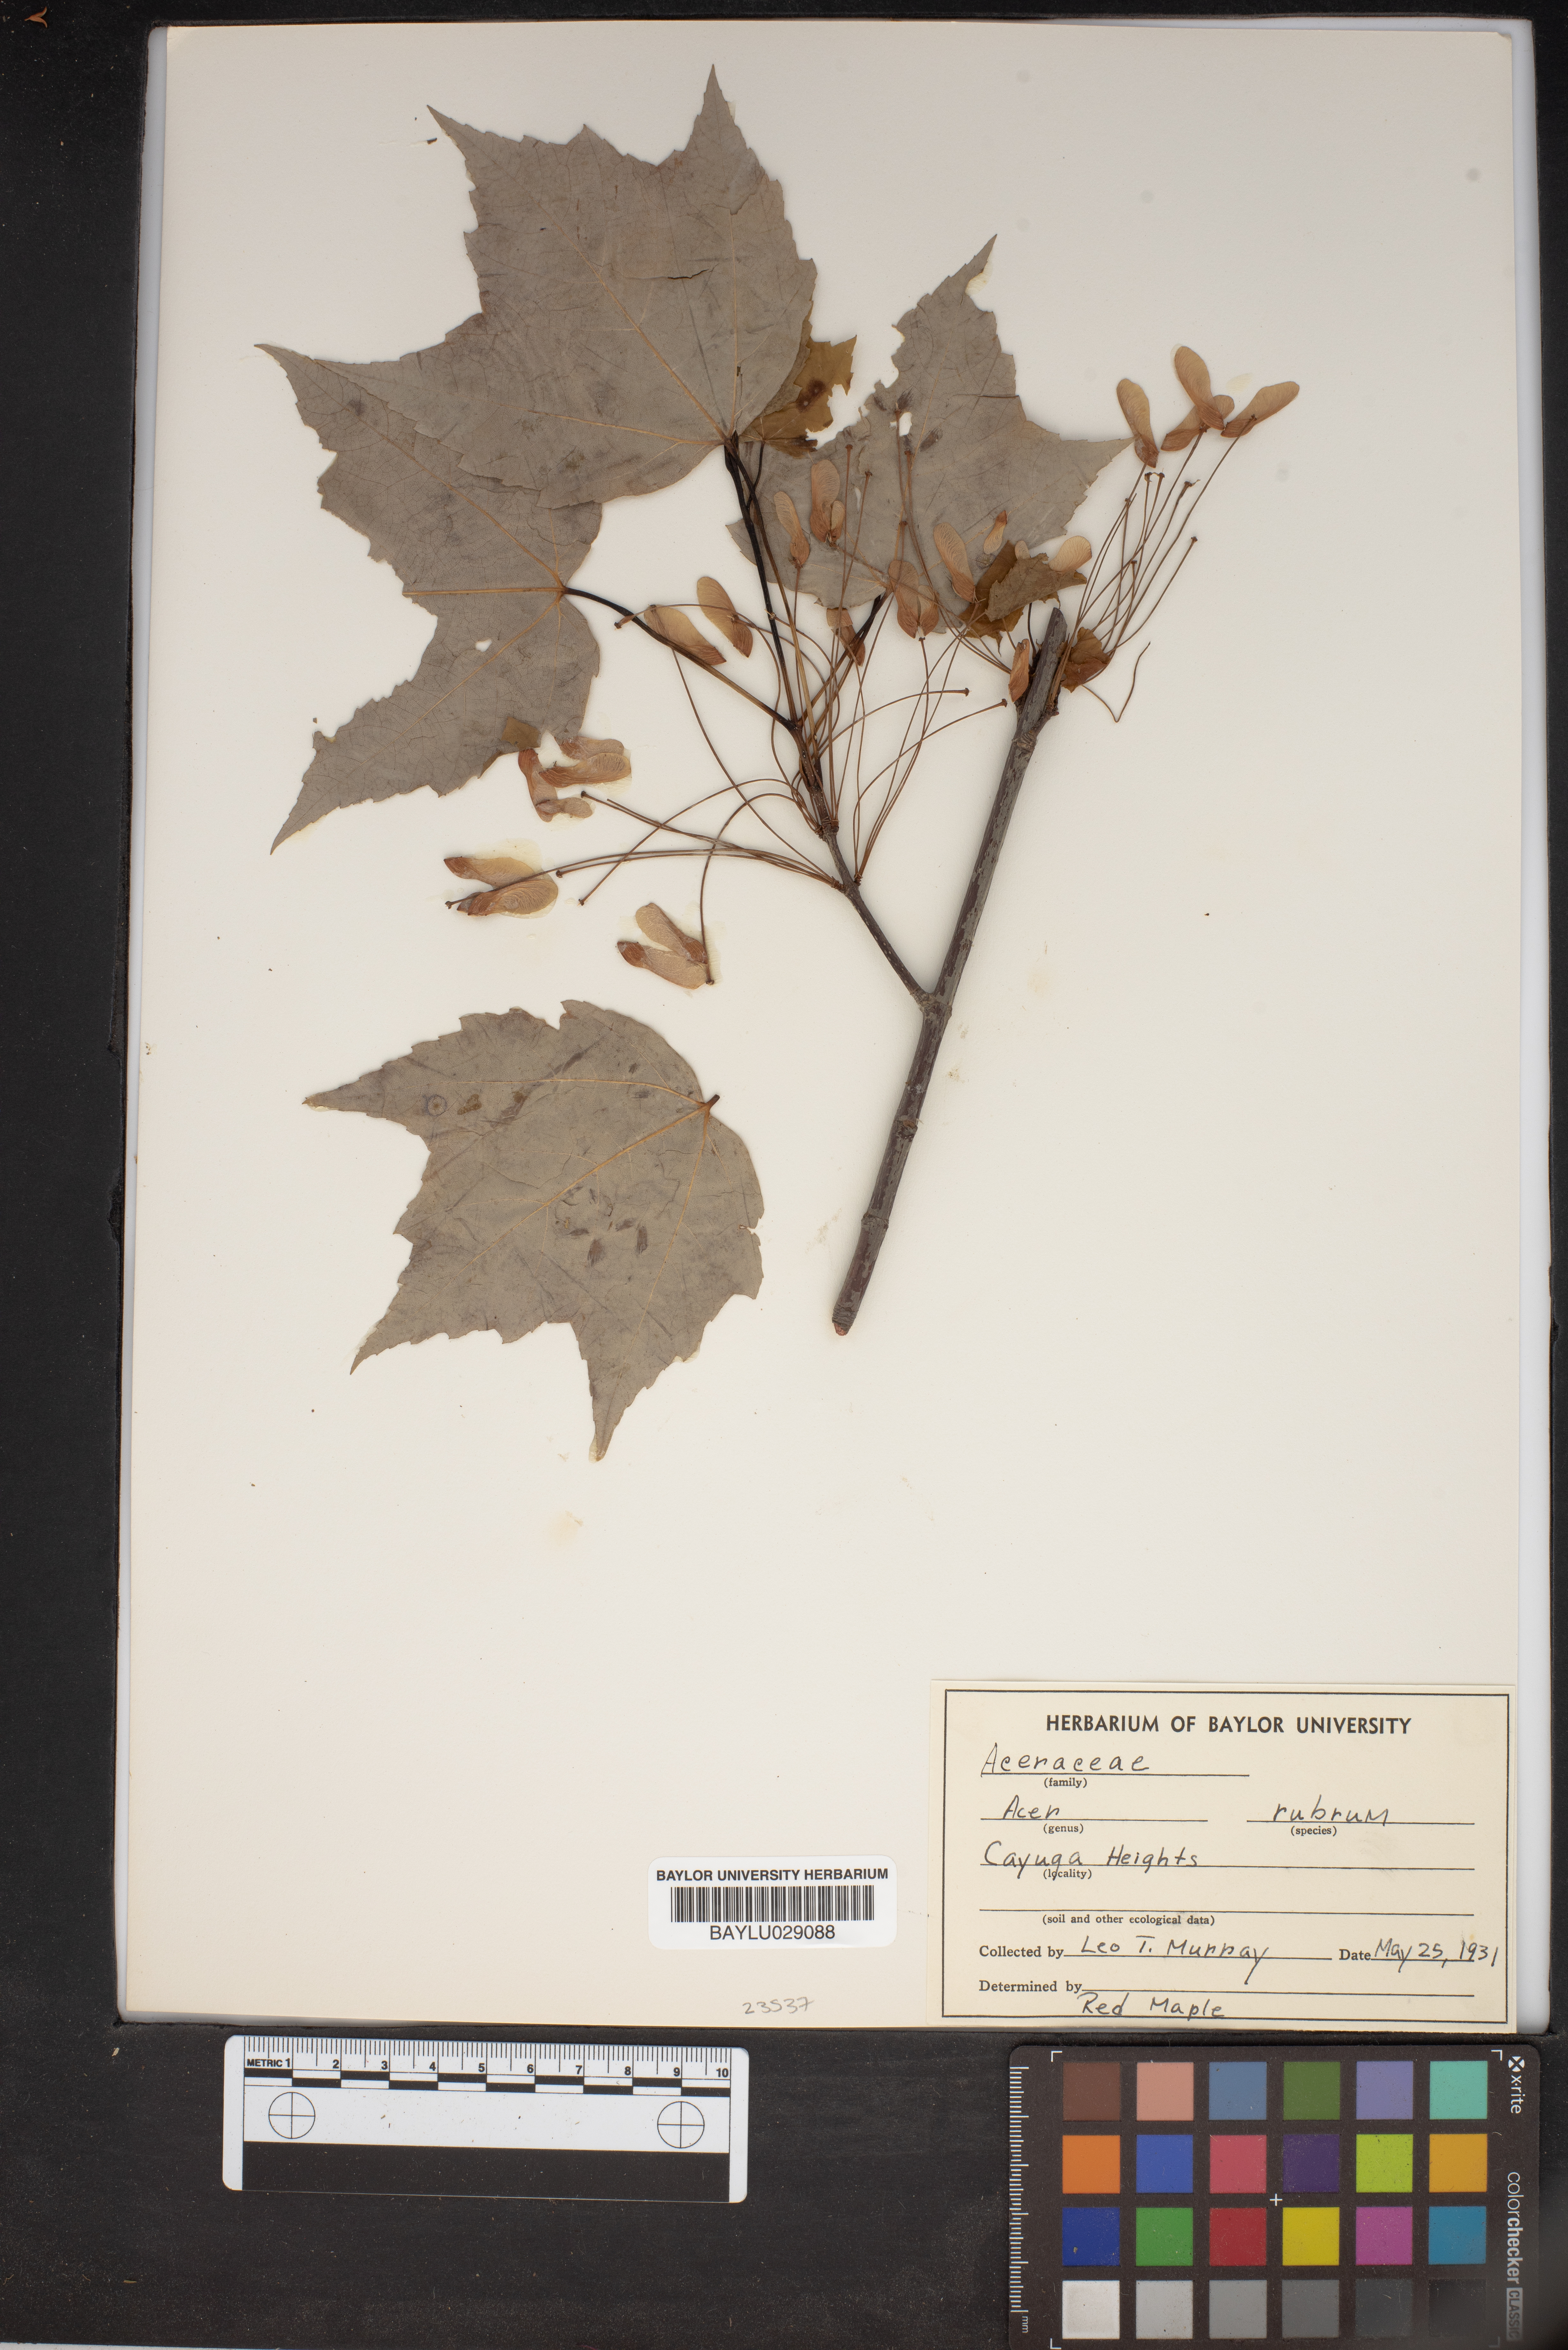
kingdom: Plantae
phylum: Tracheophyta
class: Magnoliopsida
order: Sapindales
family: Sapindaceae
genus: Acer
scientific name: Acer rubrum
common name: Red maple
